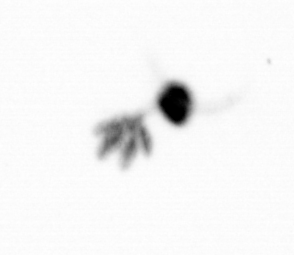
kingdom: Animalia
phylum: Arthropoda
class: Copepoda
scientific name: Copepoda
